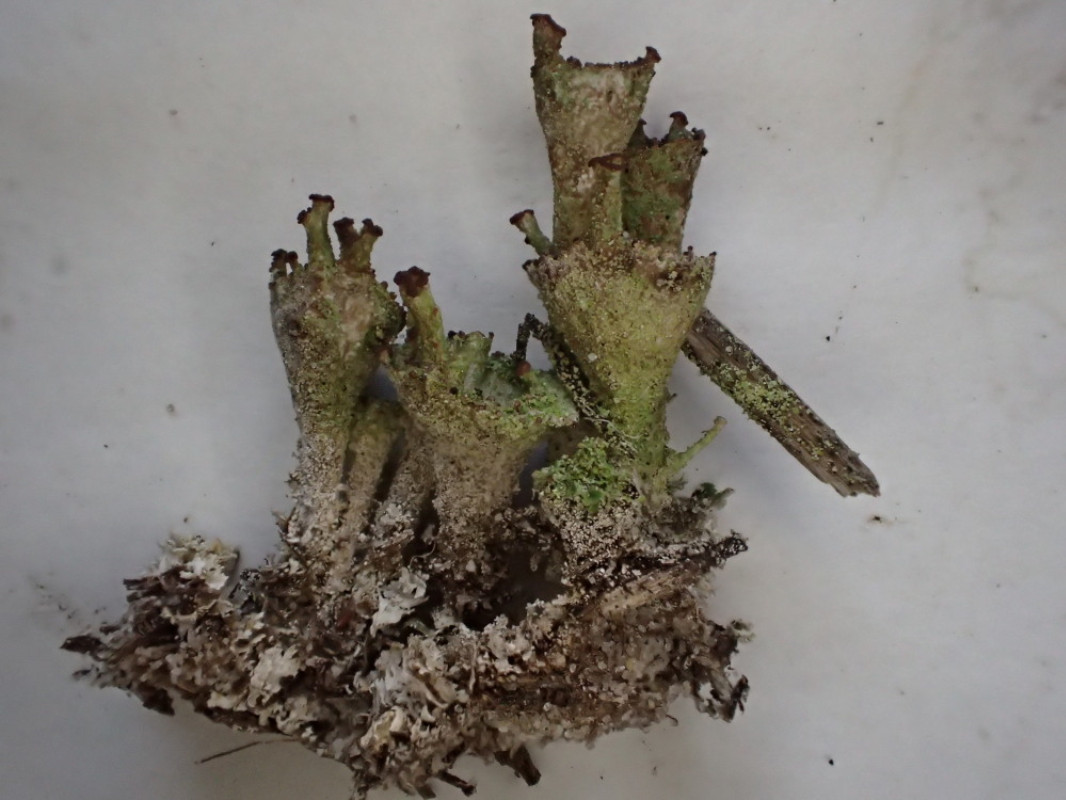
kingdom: Fungi
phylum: Ascomycota
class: Lecanoromycetes
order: Lecanorales
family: Cladoniaceae
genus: Cladonia
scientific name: Cladonia
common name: brungrøn bægerlav
